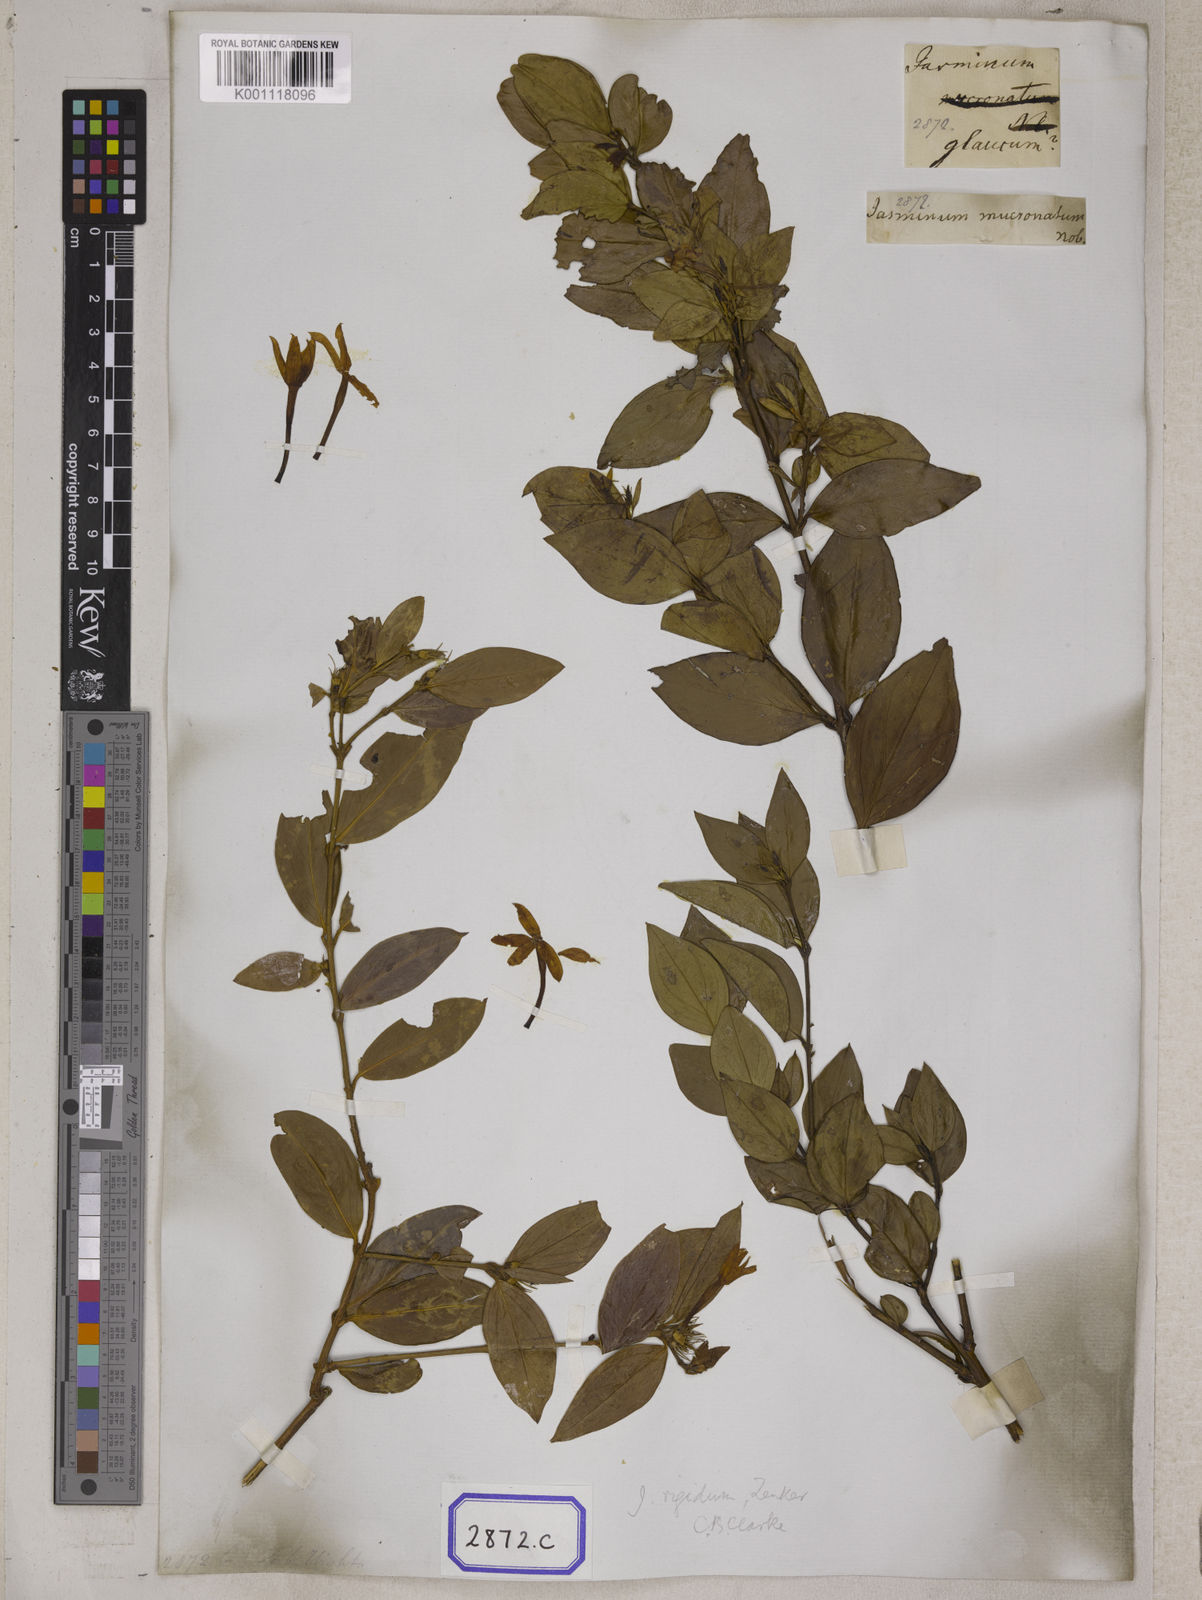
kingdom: Plantae
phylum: Tracheophyta
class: Magnoliopsida
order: Lamiales
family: Oleaceae
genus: Jasminum
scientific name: Jasminum
